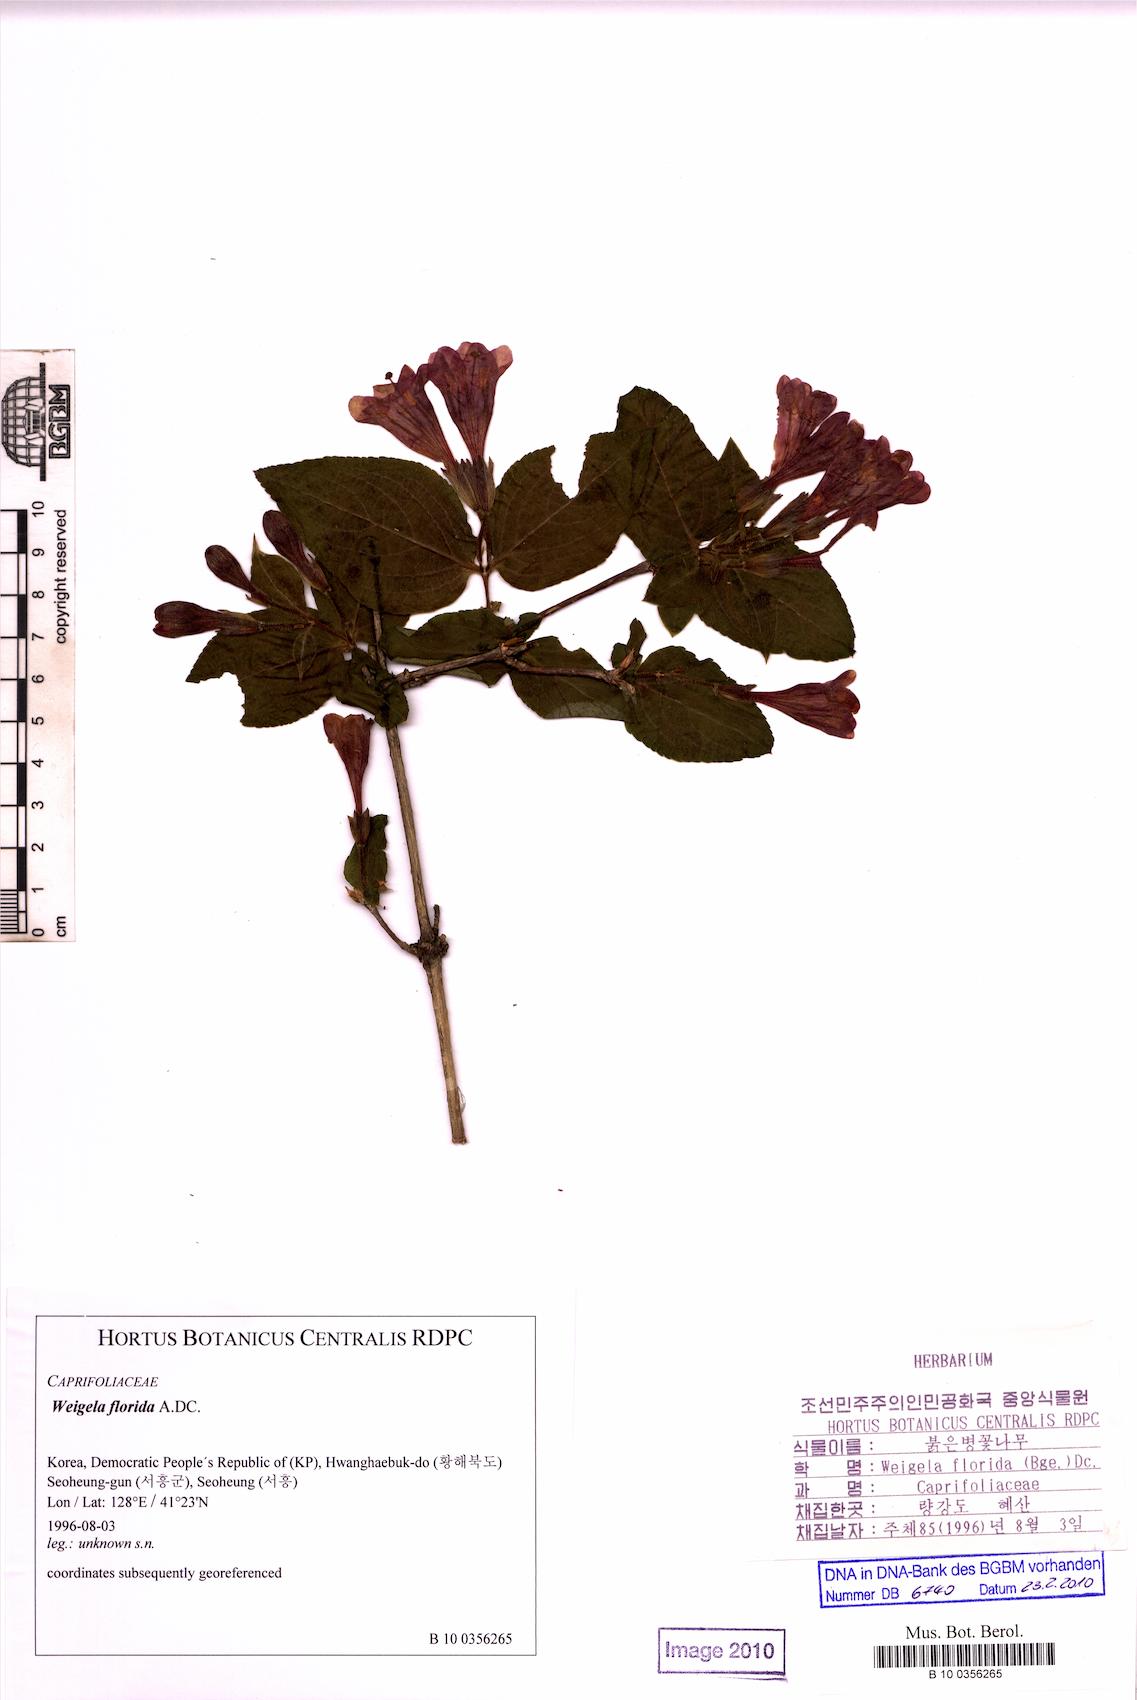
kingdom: Plantae
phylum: Tracheophyta
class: Magnoliopsida
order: Dipsacales
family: Caprifoliaceae
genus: Weigela
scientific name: Weigela florida
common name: Weigelia
